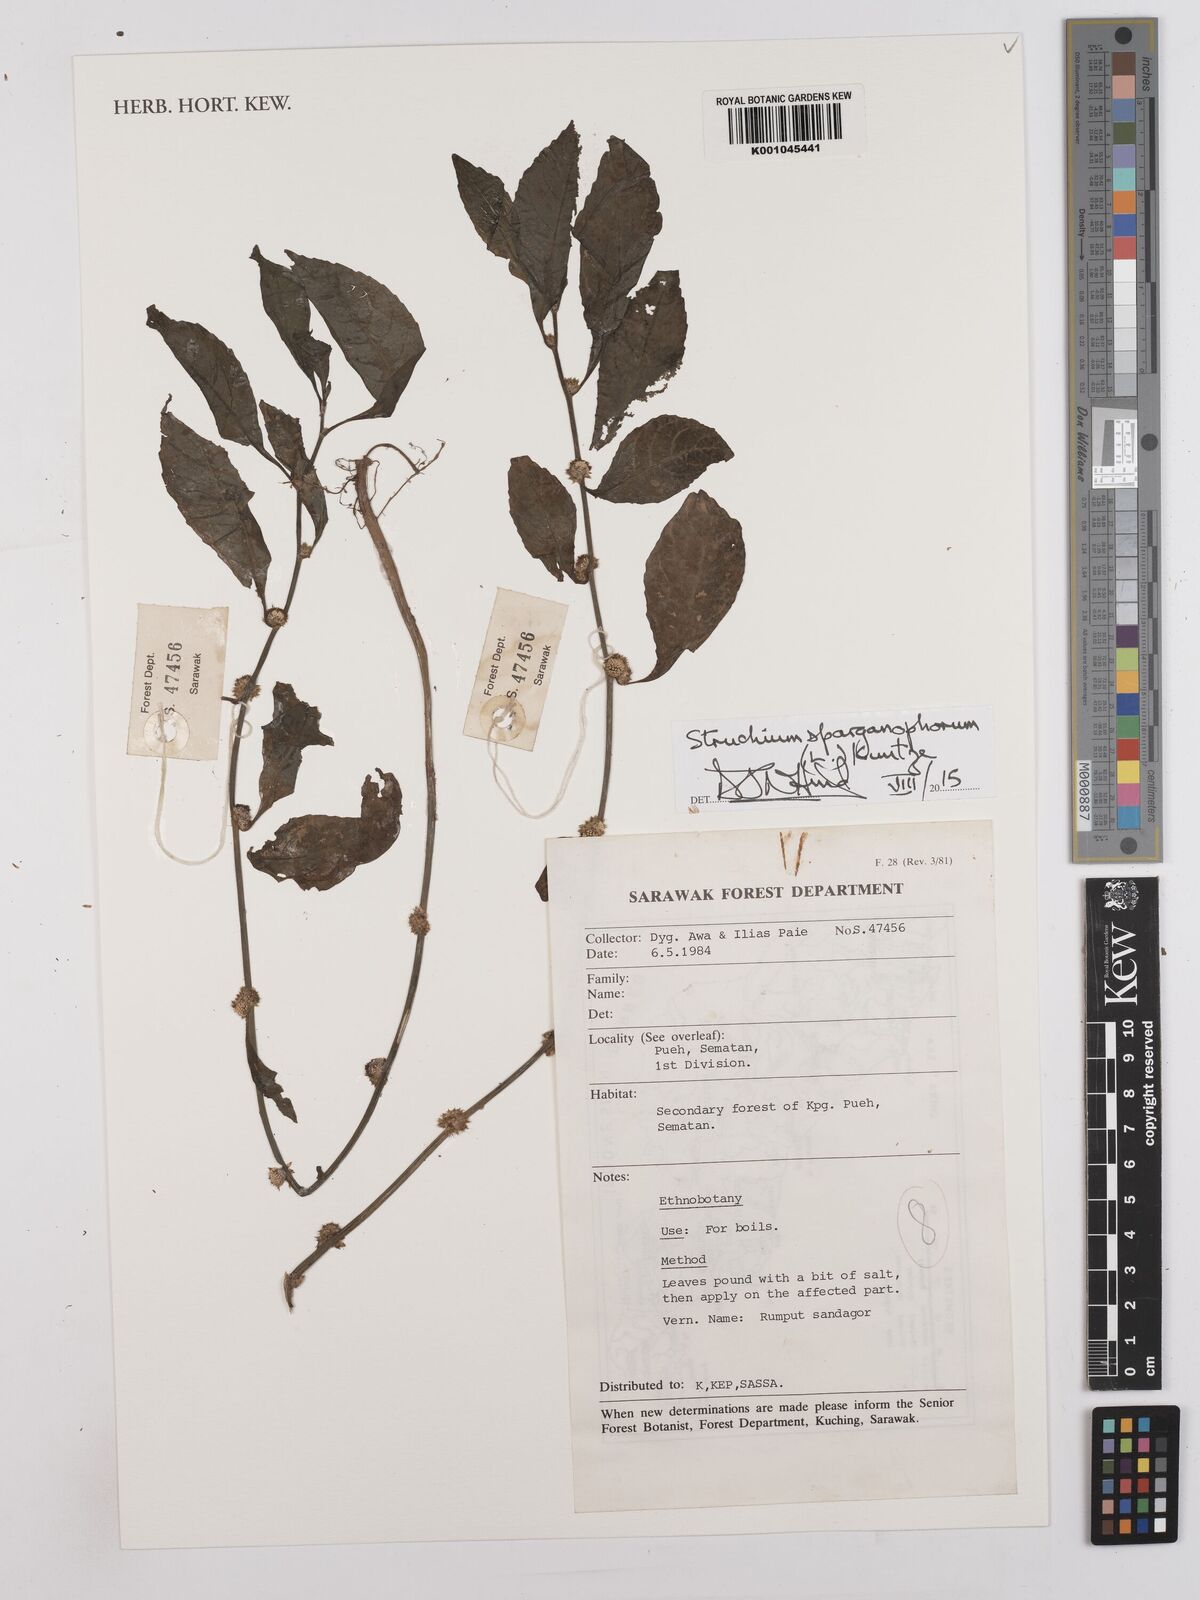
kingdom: Plantae
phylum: Tracheophyta
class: Magnoliopsida
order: Asterales
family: Asteraceae
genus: Struchium
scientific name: Struchium sparganophorum
